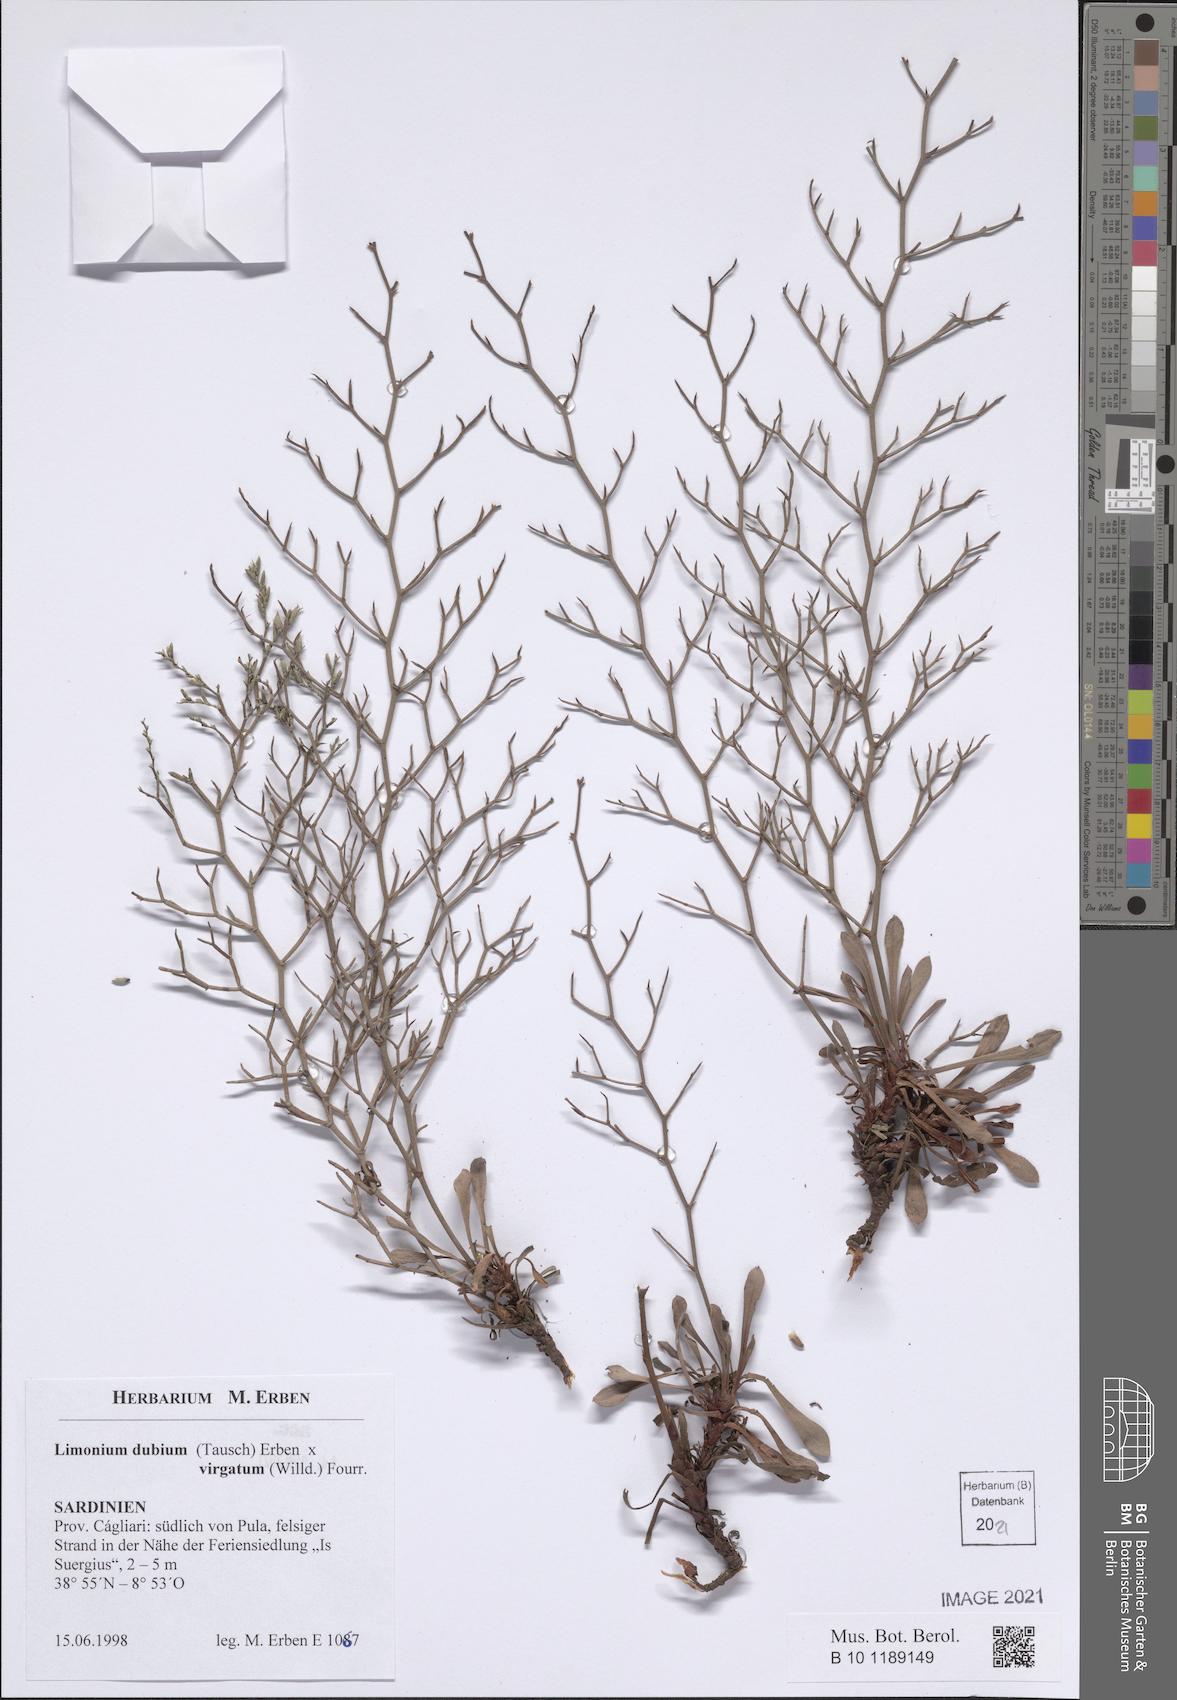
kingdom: Plantae
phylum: Tracheophyta
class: Magnoliopsida
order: Caryophyllales
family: Plumbaginaceae
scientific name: Plumbaginaceae
